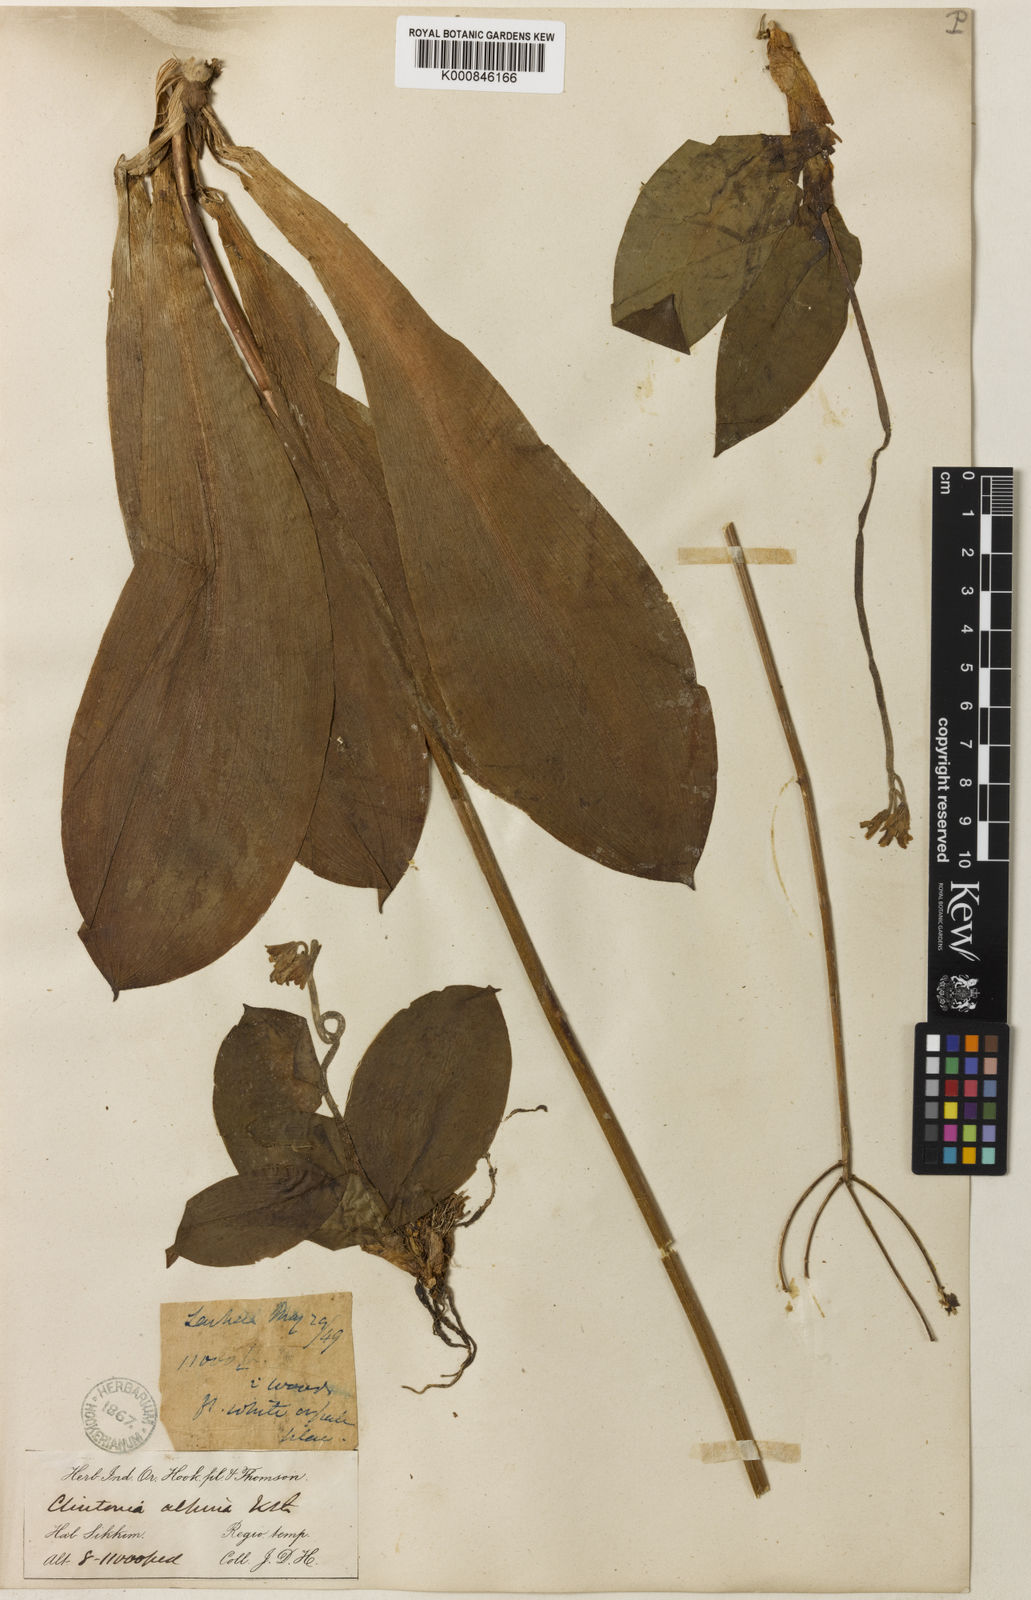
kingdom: Plantae
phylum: Tracheophyta
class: Liliopsida
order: Liliales
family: Liliaceae
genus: Clintonia
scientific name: Clintonia udensis
